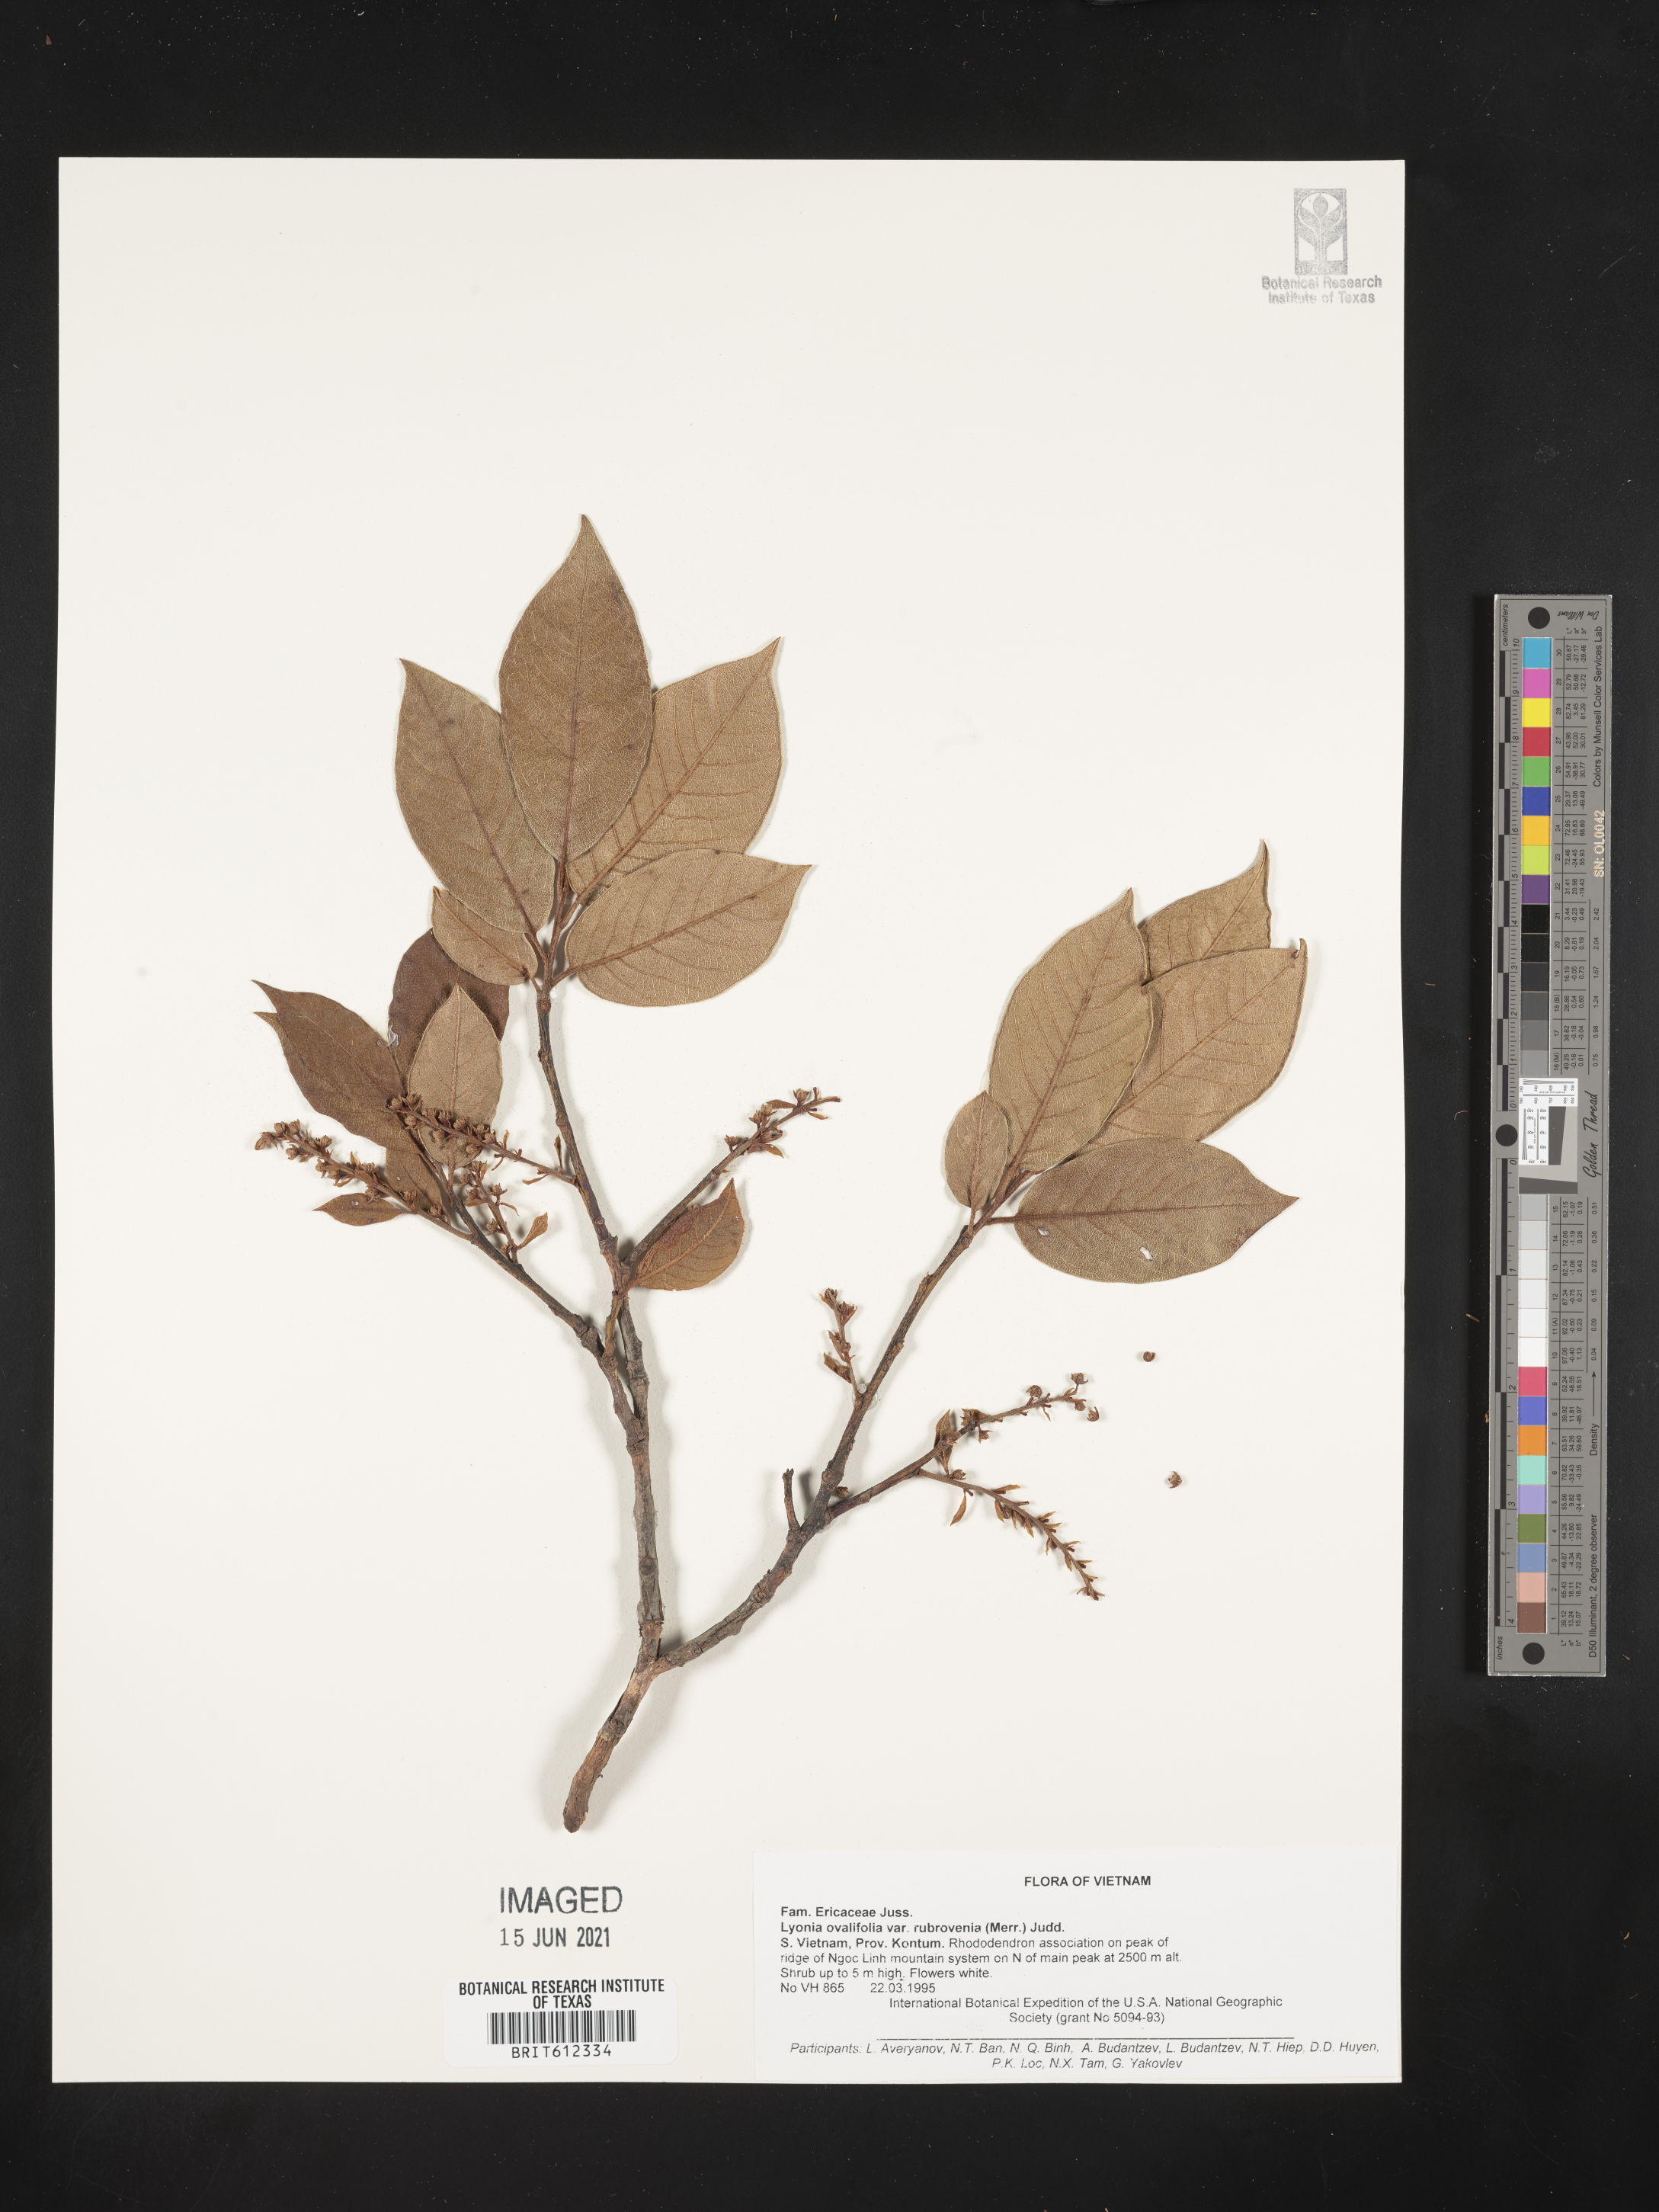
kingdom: Plantae
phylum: Tracheophyta
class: Magnoliopsida
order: Ericales
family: Ericaceae
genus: Lyonia
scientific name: Lyonia ovalifolia
